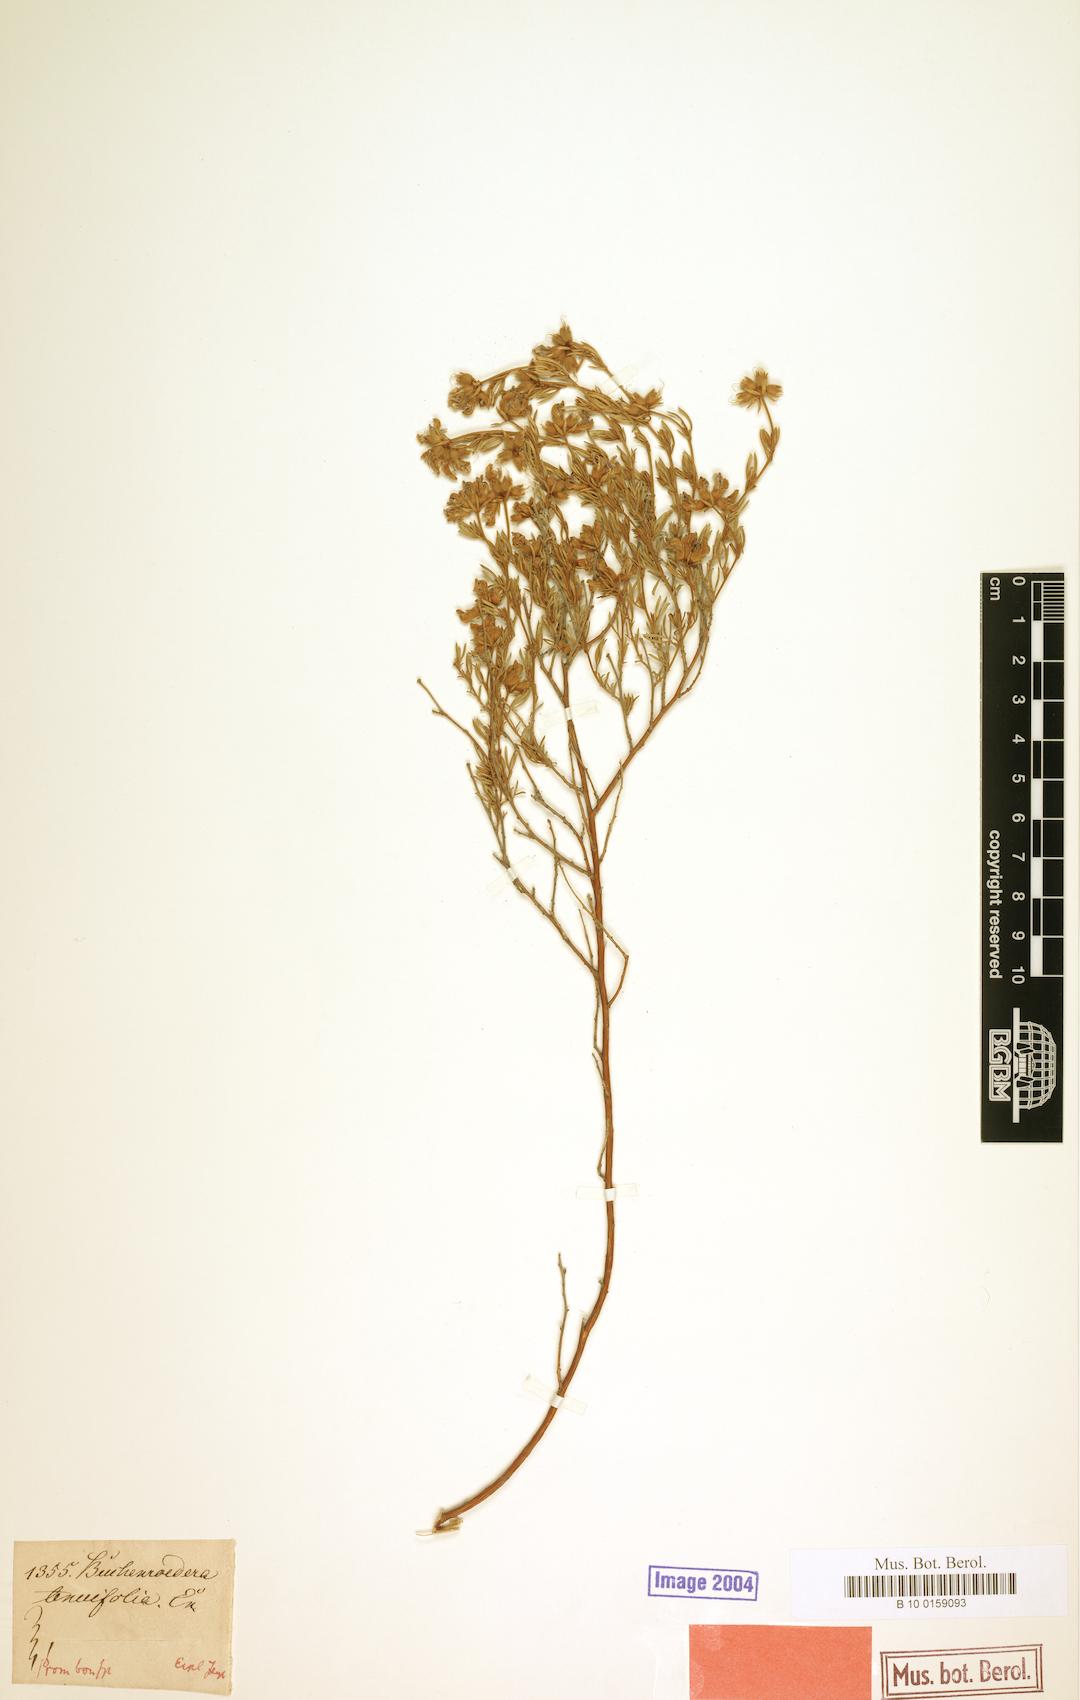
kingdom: Plantae
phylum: Tracheophyta
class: Magnoliopsida
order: Fabales
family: Fabaceae
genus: Lotononis
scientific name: Lotononis pulchella
